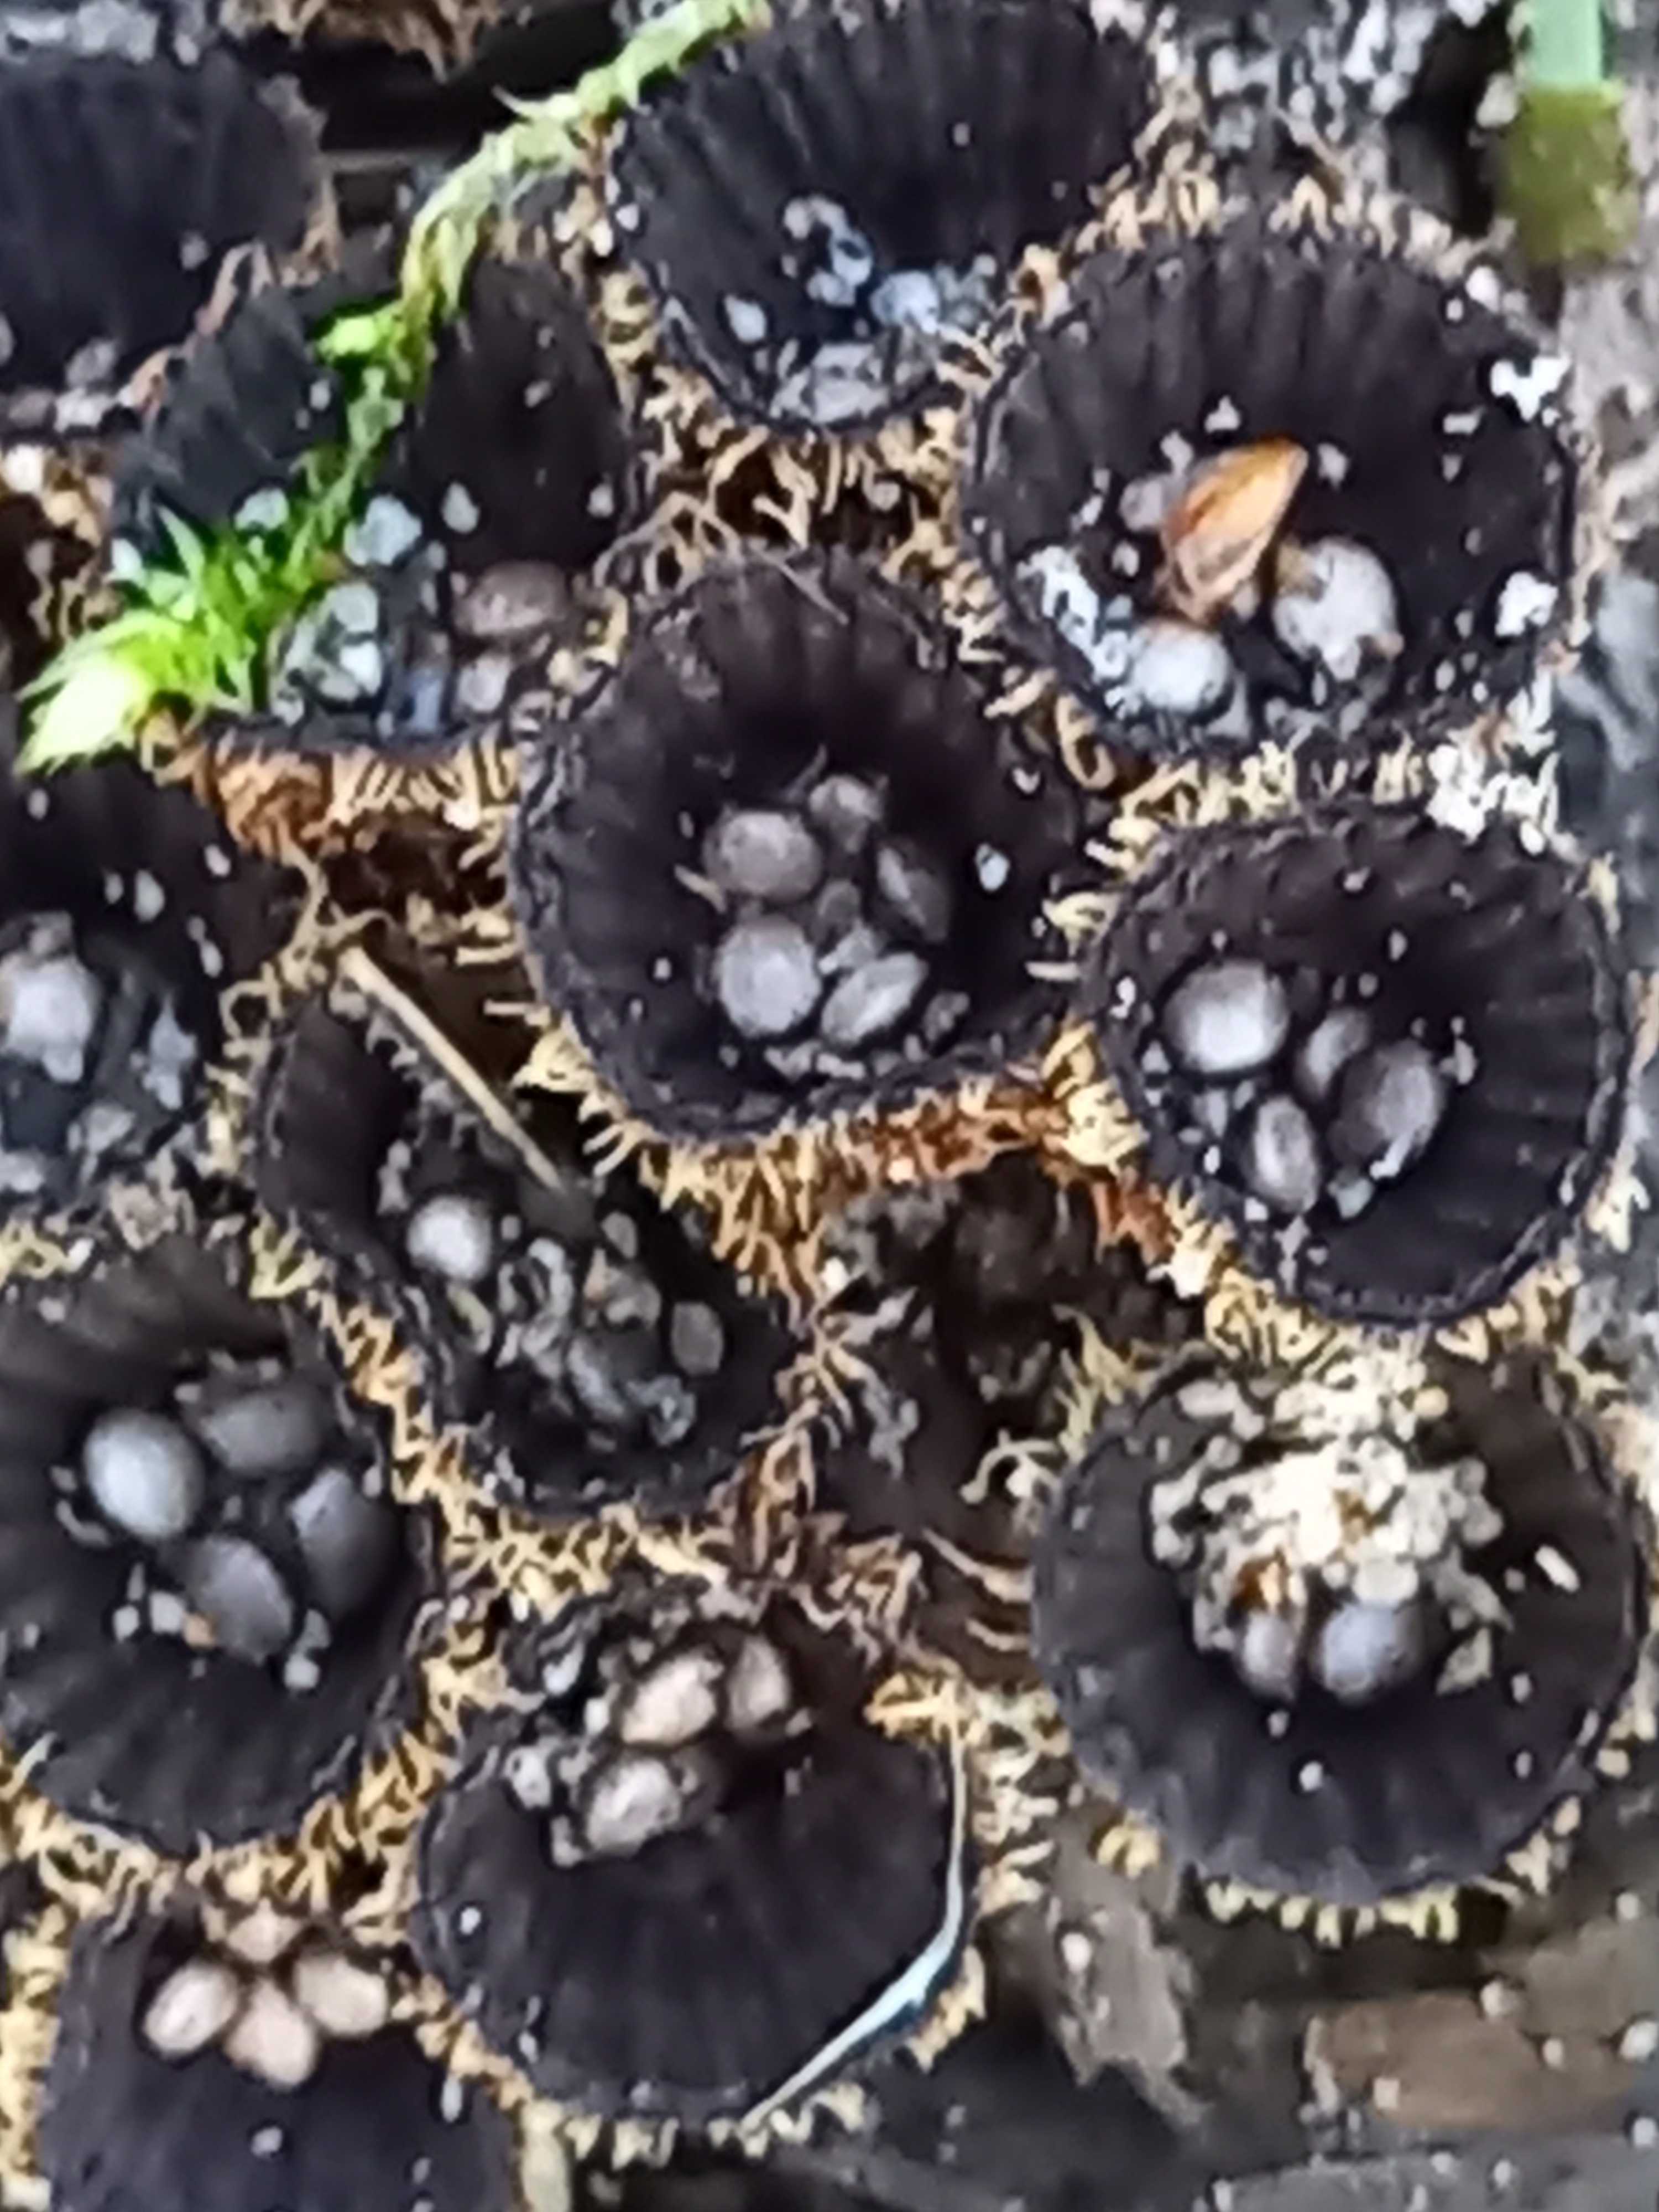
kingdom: Fungi
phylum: Basidiomycota
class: Agaricomycetes
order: Agaricales
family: Agaricaceae
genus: Cyathus
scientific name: Cyathus striatus
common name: stribet redesvamp
